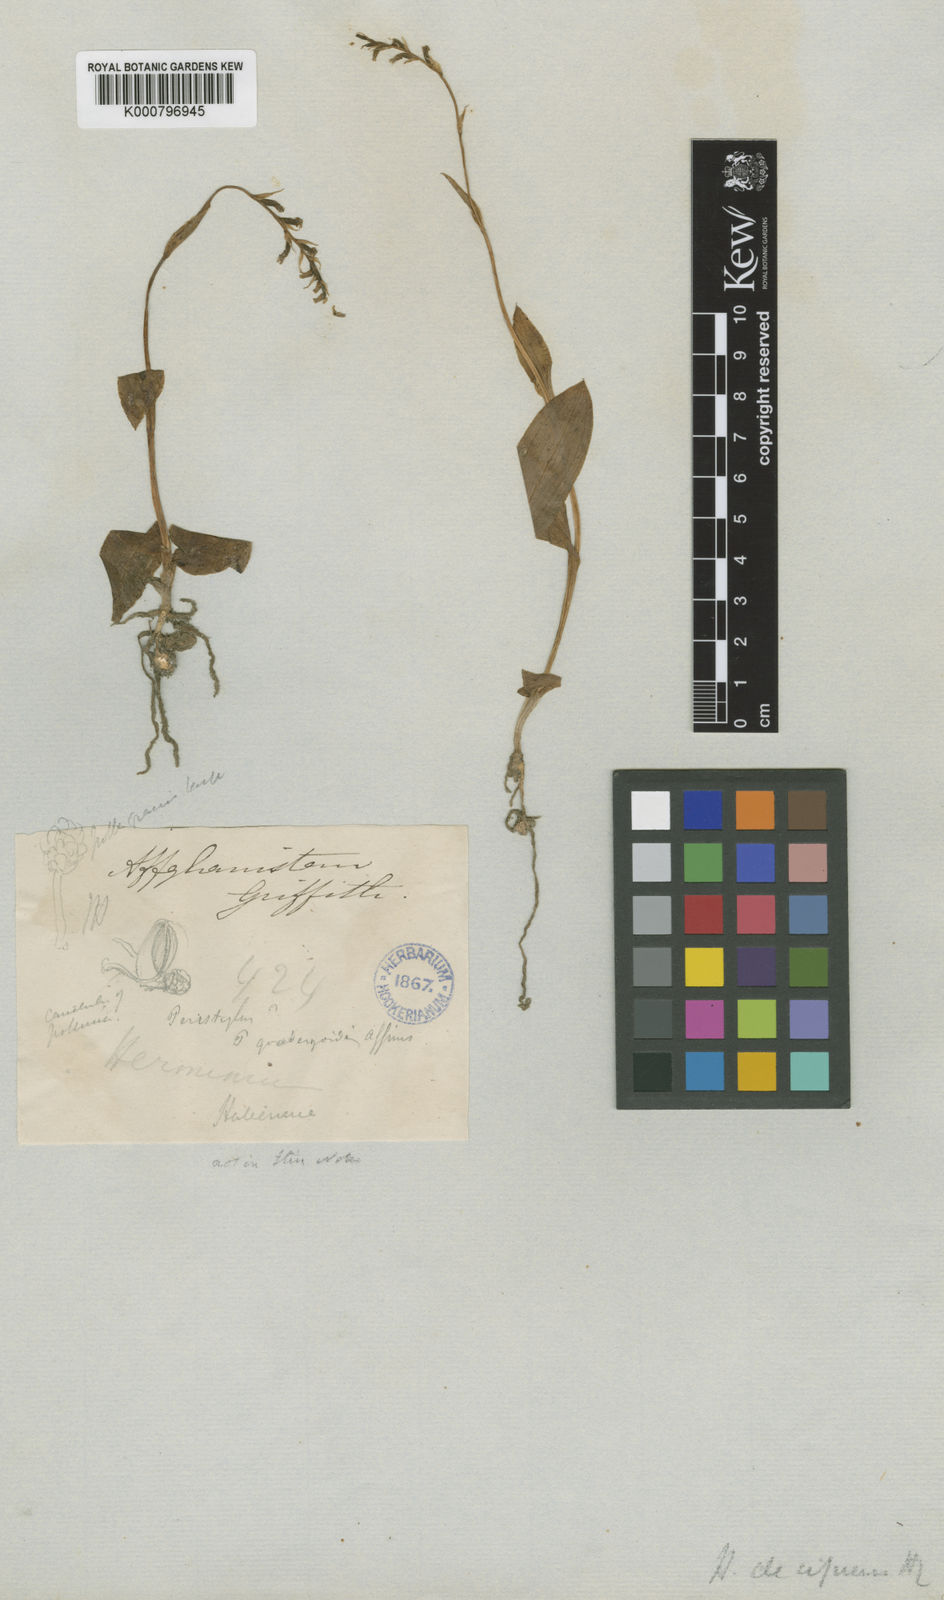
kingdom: Plantae
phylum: Tracheophyta
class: Liliopsida
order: Asparagales
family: Orchidaceae
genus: Gennaria
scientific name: Gennaria griffithii
